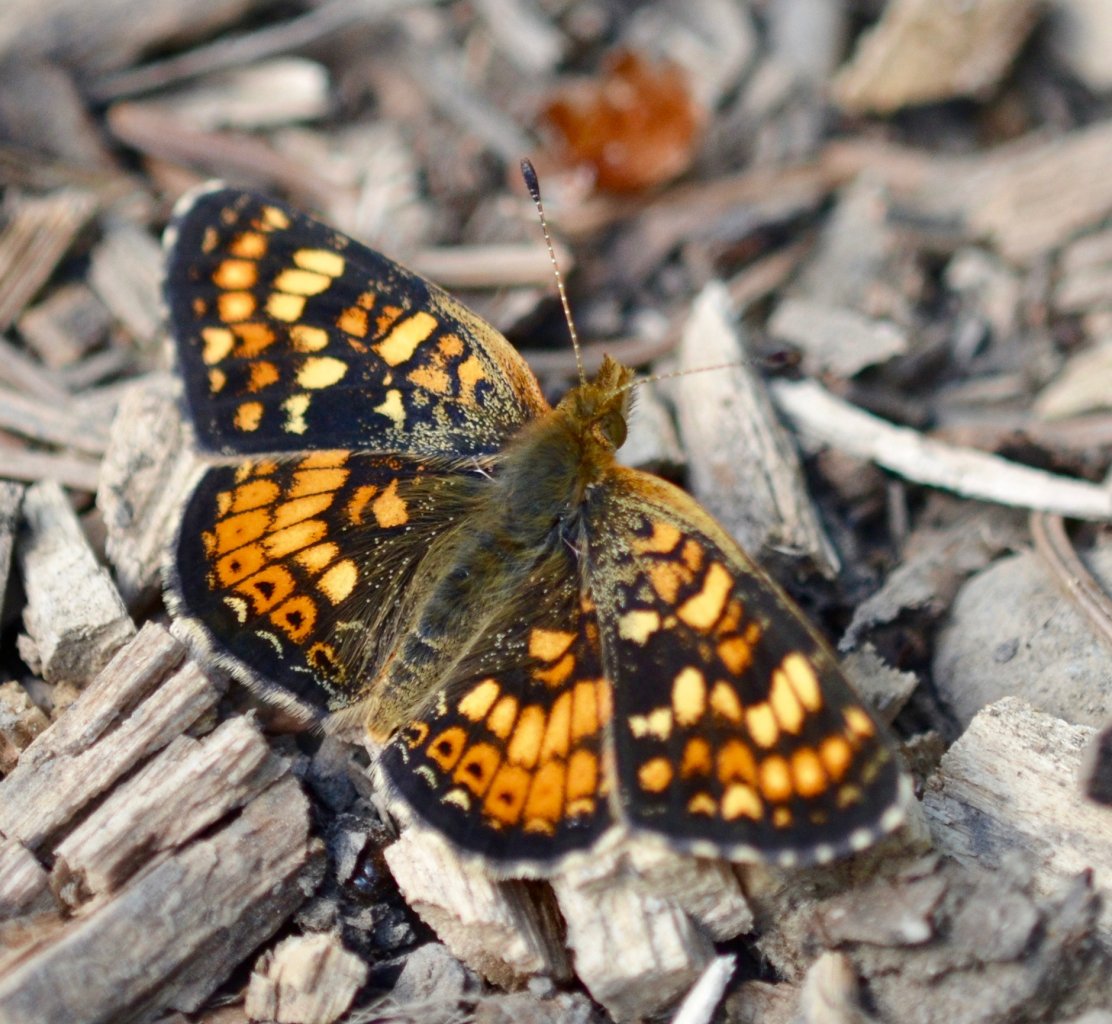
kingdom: Animalia
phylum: Arthropoda
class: Insecta
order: Lepidoptera
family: Nymphalidae
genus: Phyciodes
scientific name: Phyciodes tharos
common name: Field Crescent
